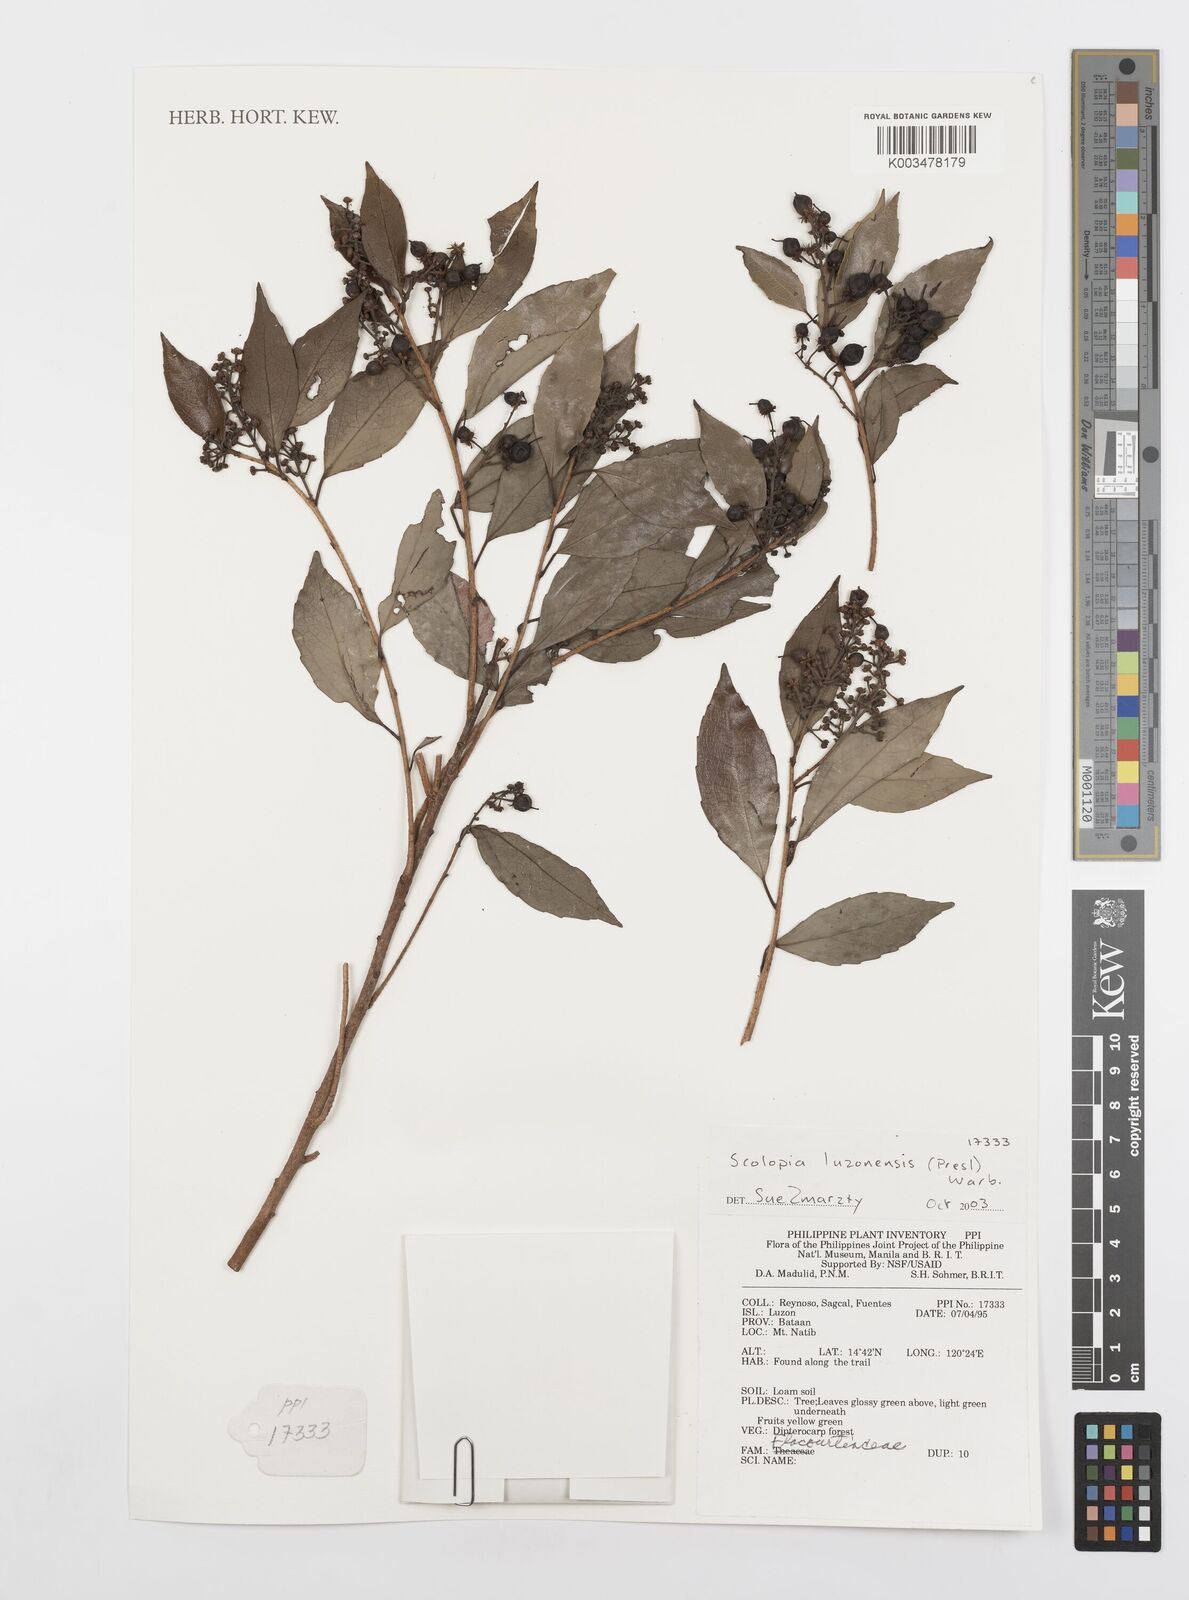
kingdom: Plantae
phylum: Tracheophyta
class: Magnoliopsida
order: Malpighiales
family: Salicaceae
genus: Scolopia
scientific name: Scolopia luzonensis
